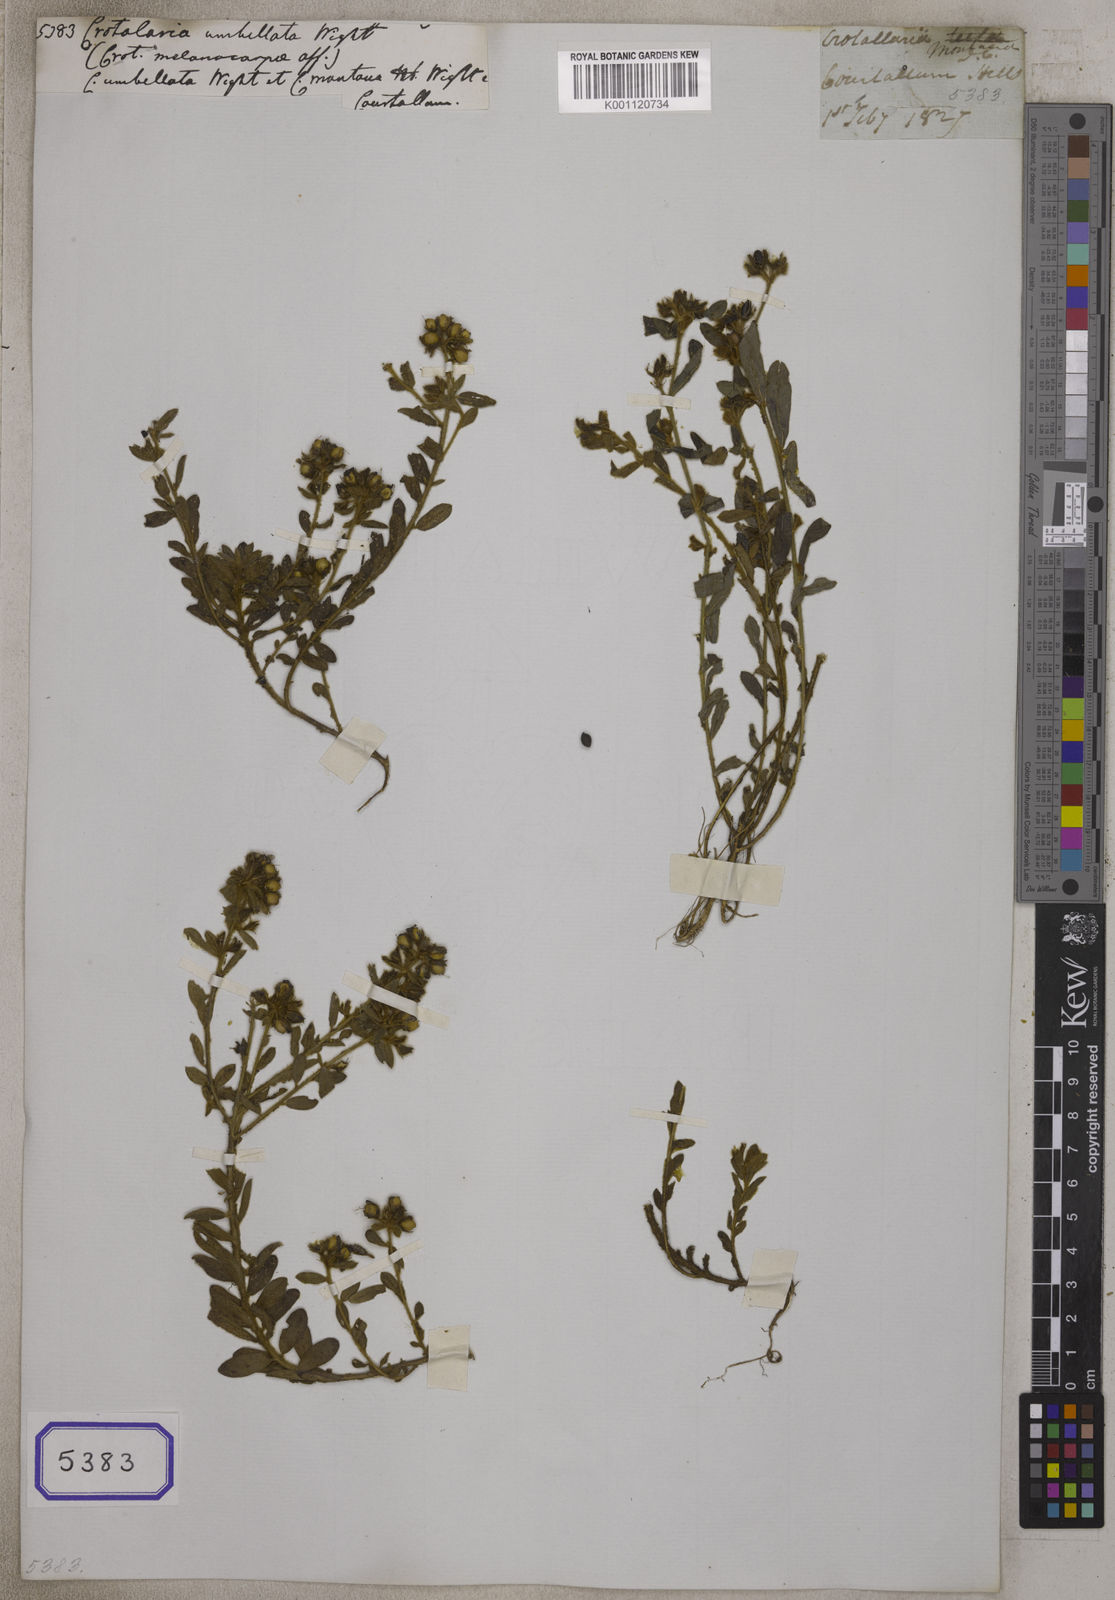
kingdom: Plantae
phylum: Tracheophyta
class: Magnoliopsida
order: Fabales
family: Fabaceae
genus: Crotalaria
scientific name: Crotalaria nana
